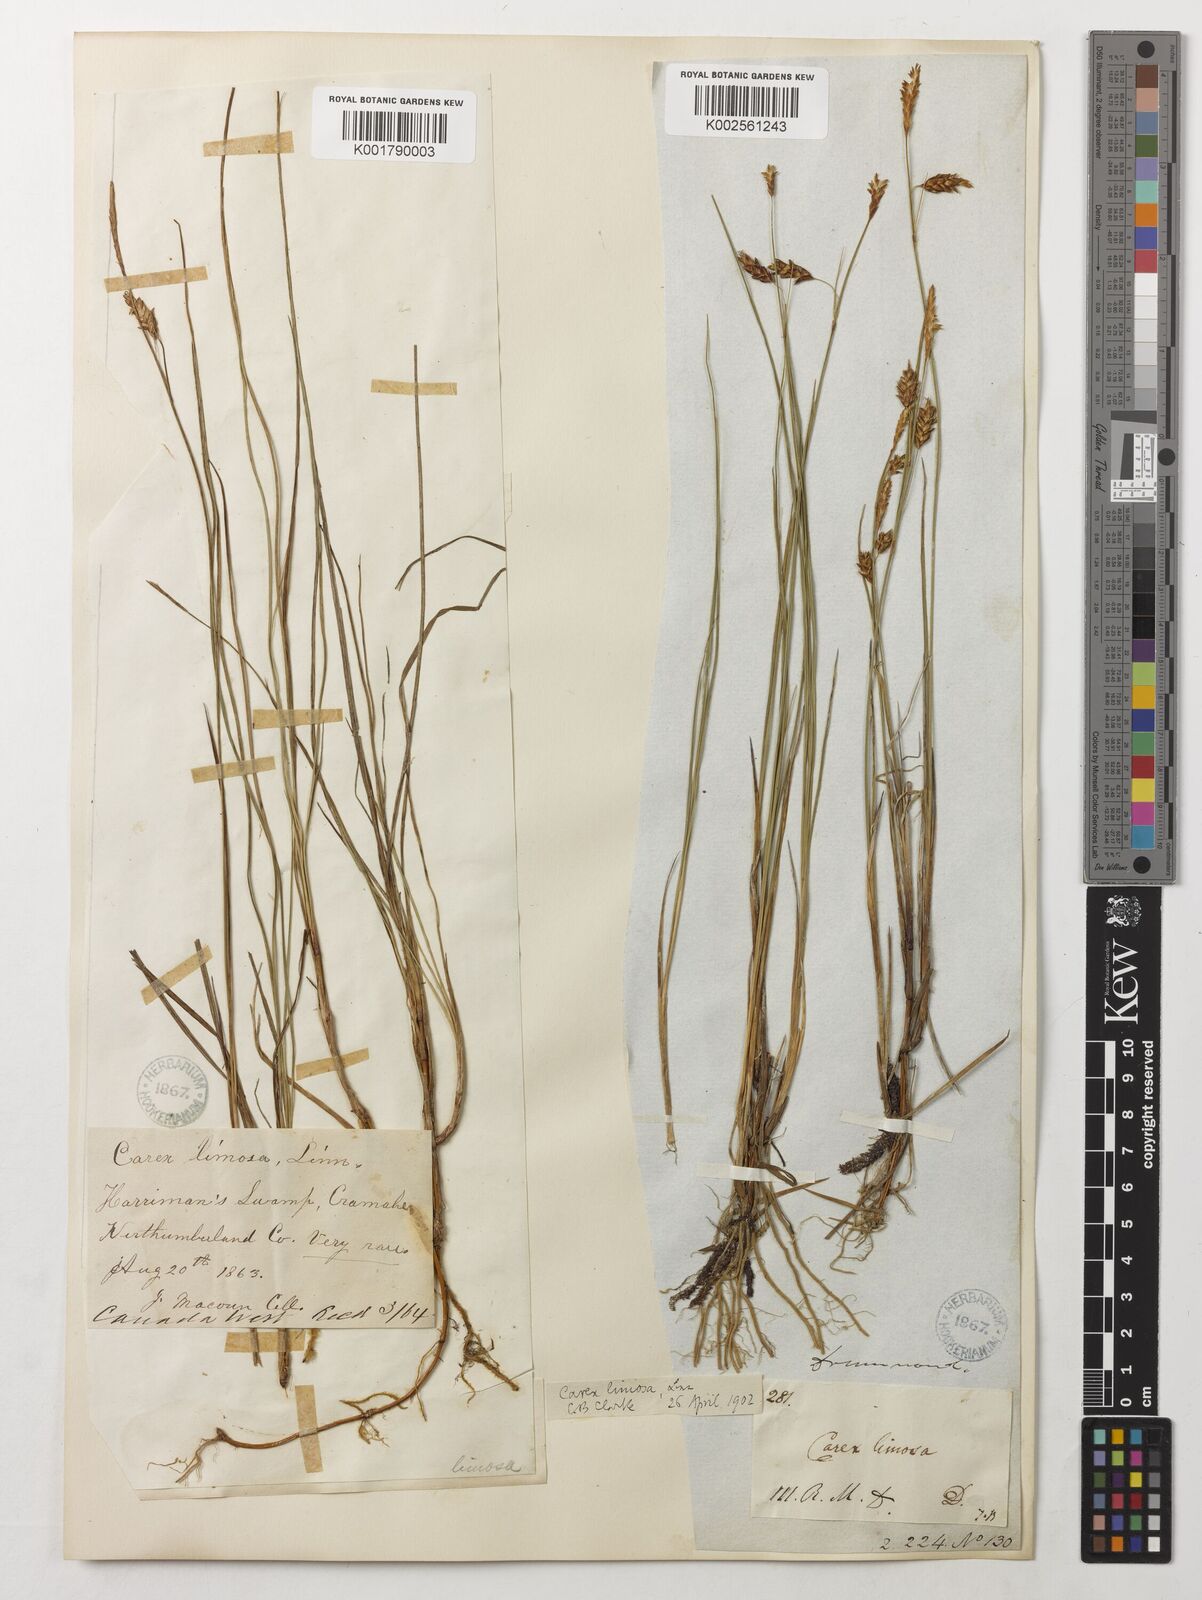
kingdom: Plantae
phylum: Tracheophyta
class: Liliopsida
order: Poales
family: Cyperaceae
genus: Carex
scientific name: Carex limosa
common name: Bog sedge
